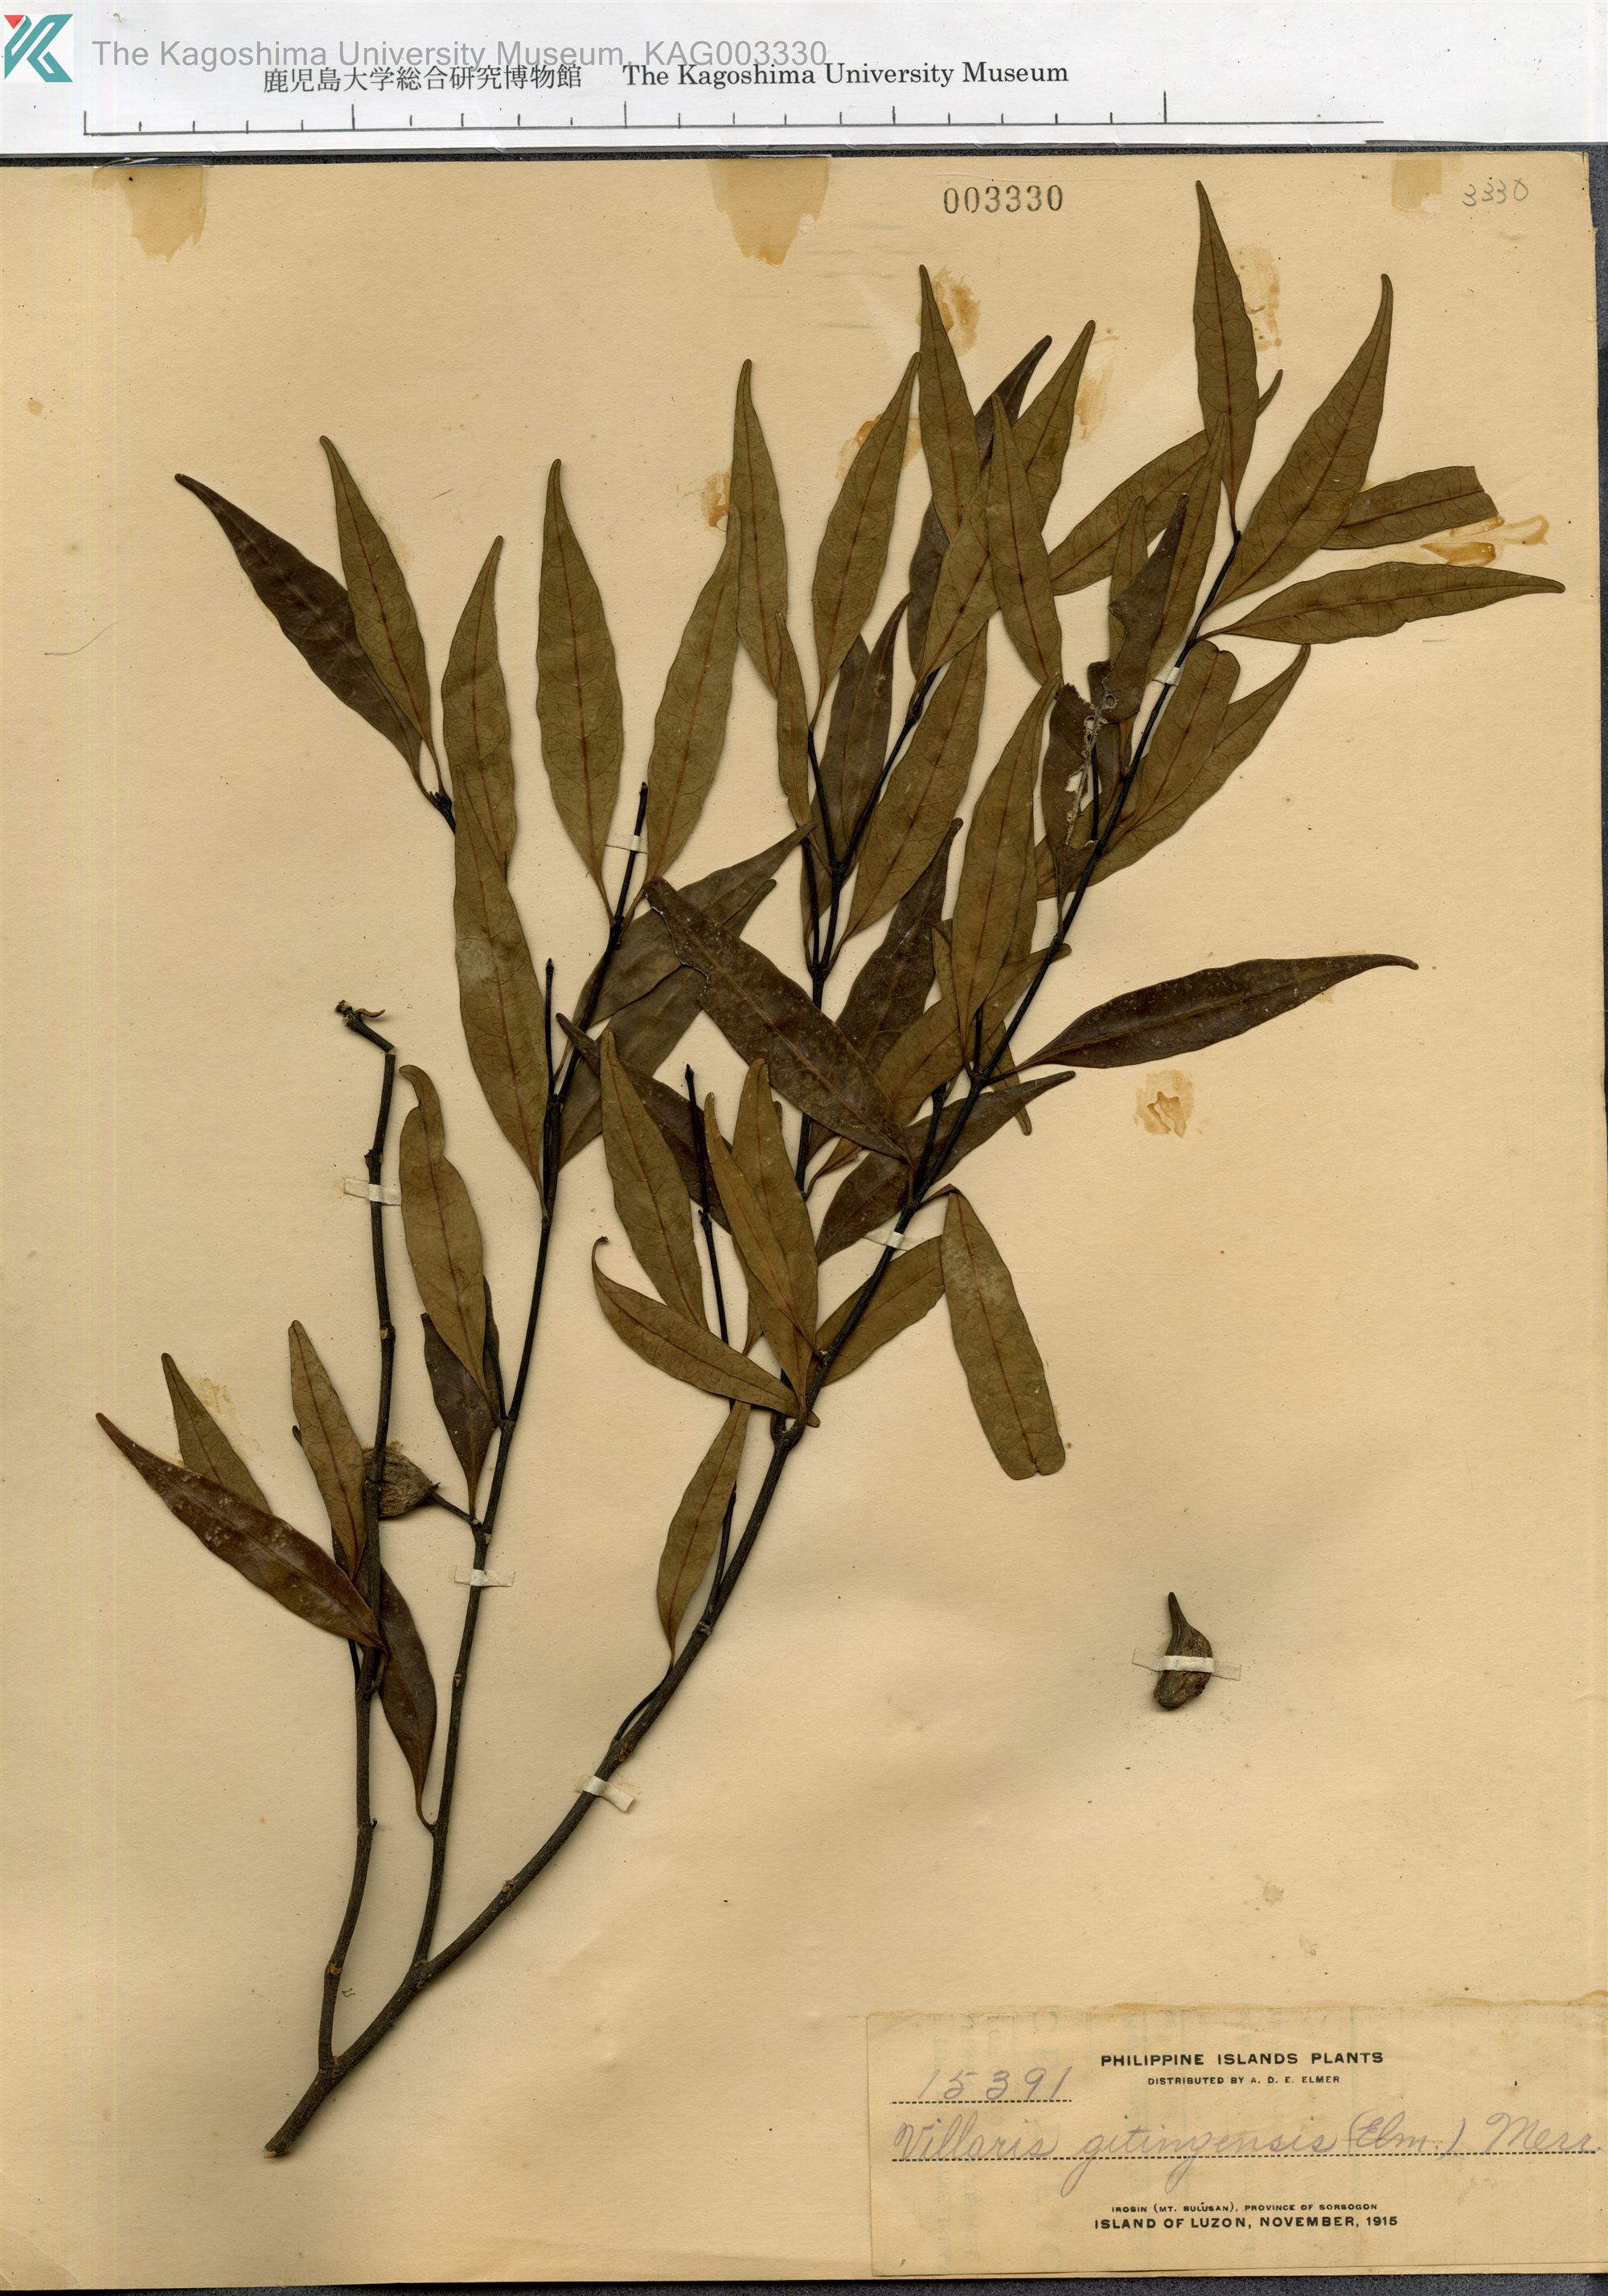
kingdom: Plantae
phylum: Tracheophyta
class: Magnoliopsida
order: Gentianales
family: Apocynaceae
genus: Kibatalia
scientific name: Kibatalia gitingensis
